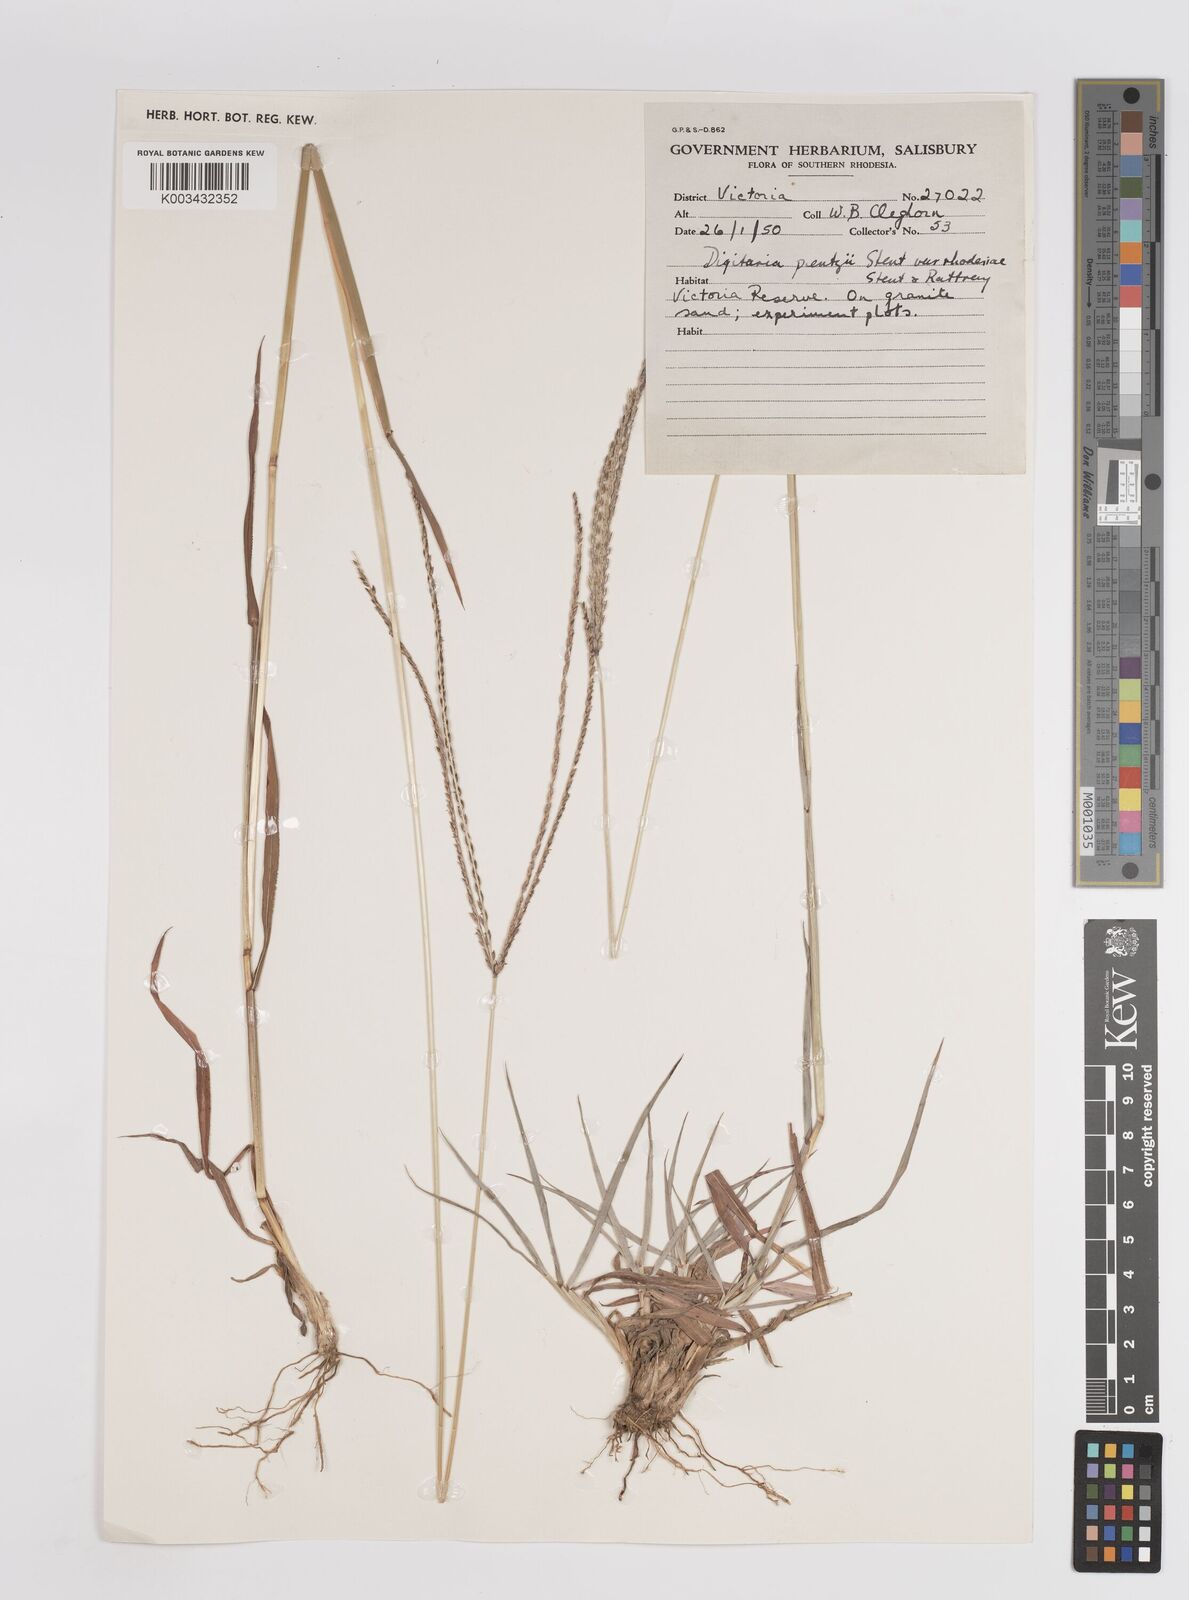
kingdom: Plantae
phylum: Tracheophyta
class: Liliopsida
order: Poales
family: Poaceae
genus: Digitaria
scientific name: Digitaria eriantha
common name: Digitgrass
